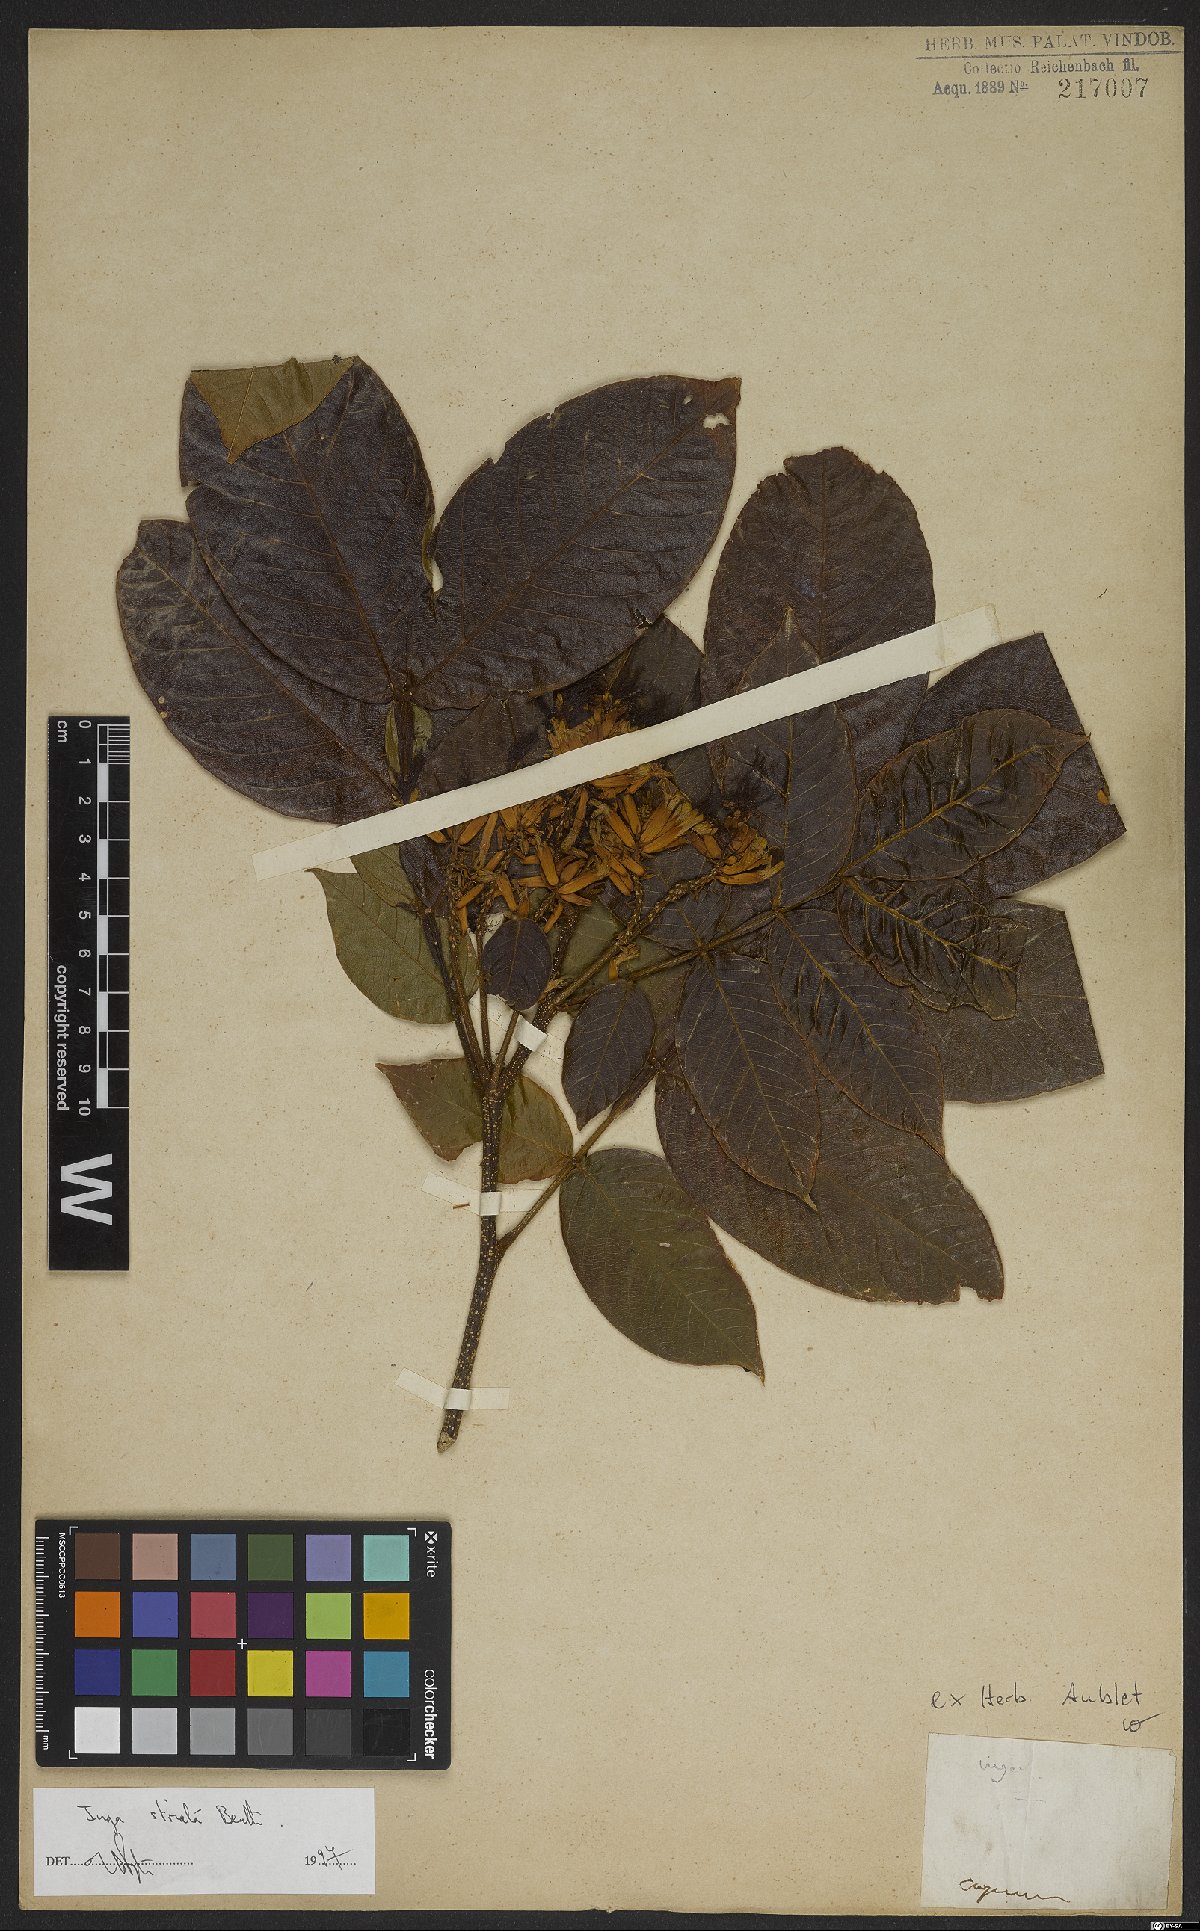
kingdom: Plantae
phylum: Tracheophyta
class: Magnoliopsida
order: Fabales
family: Fabaceae
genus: Inga
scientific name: Inga striata
